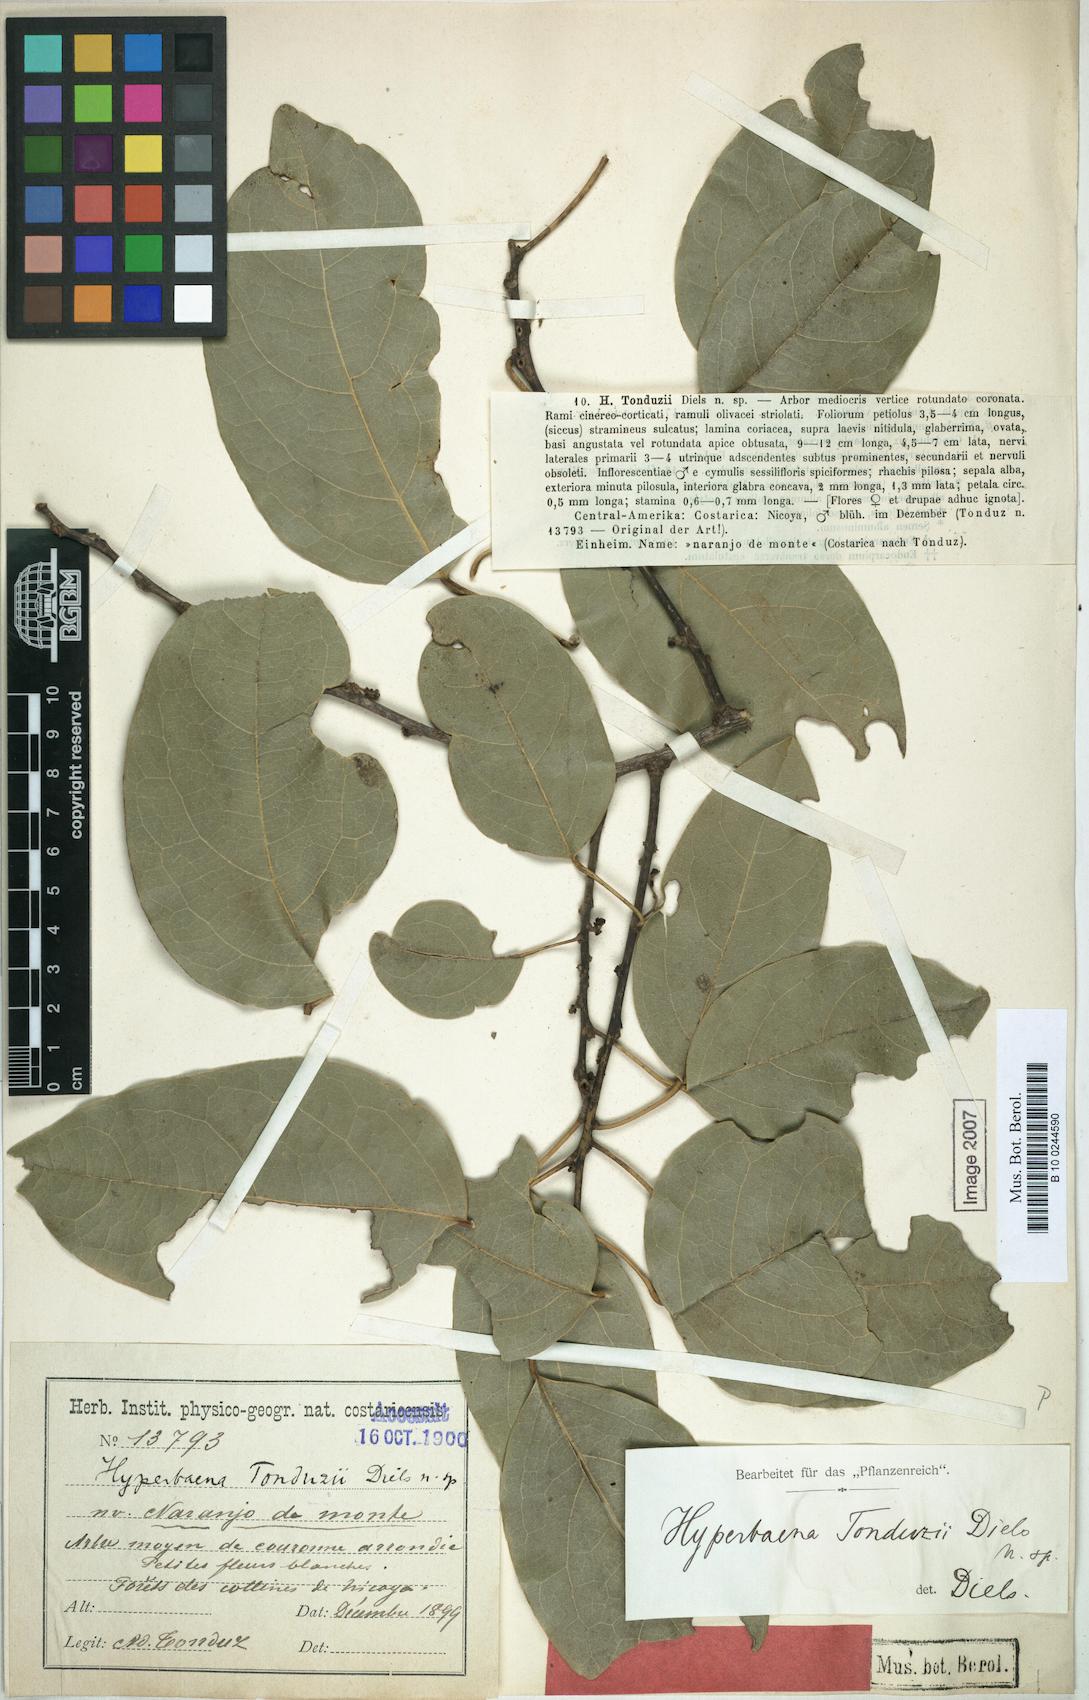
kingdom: Plantae
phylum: Tracheophyta
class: Magnoliopsida
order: Ranunculales
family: Menispermaceae
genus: Hyperbaena
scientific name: Hyperbaena tonduzii
